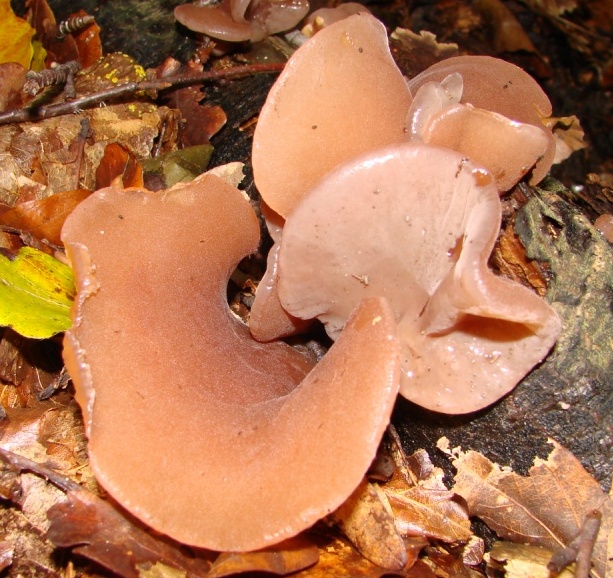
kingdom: Fungi
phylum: Basidiomycota
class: Agaricomycetes
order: Auriculariales
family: Auriculariaceae
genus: Auricularia
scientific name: Auricularia auricula-judae
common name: almindelig judasøre
